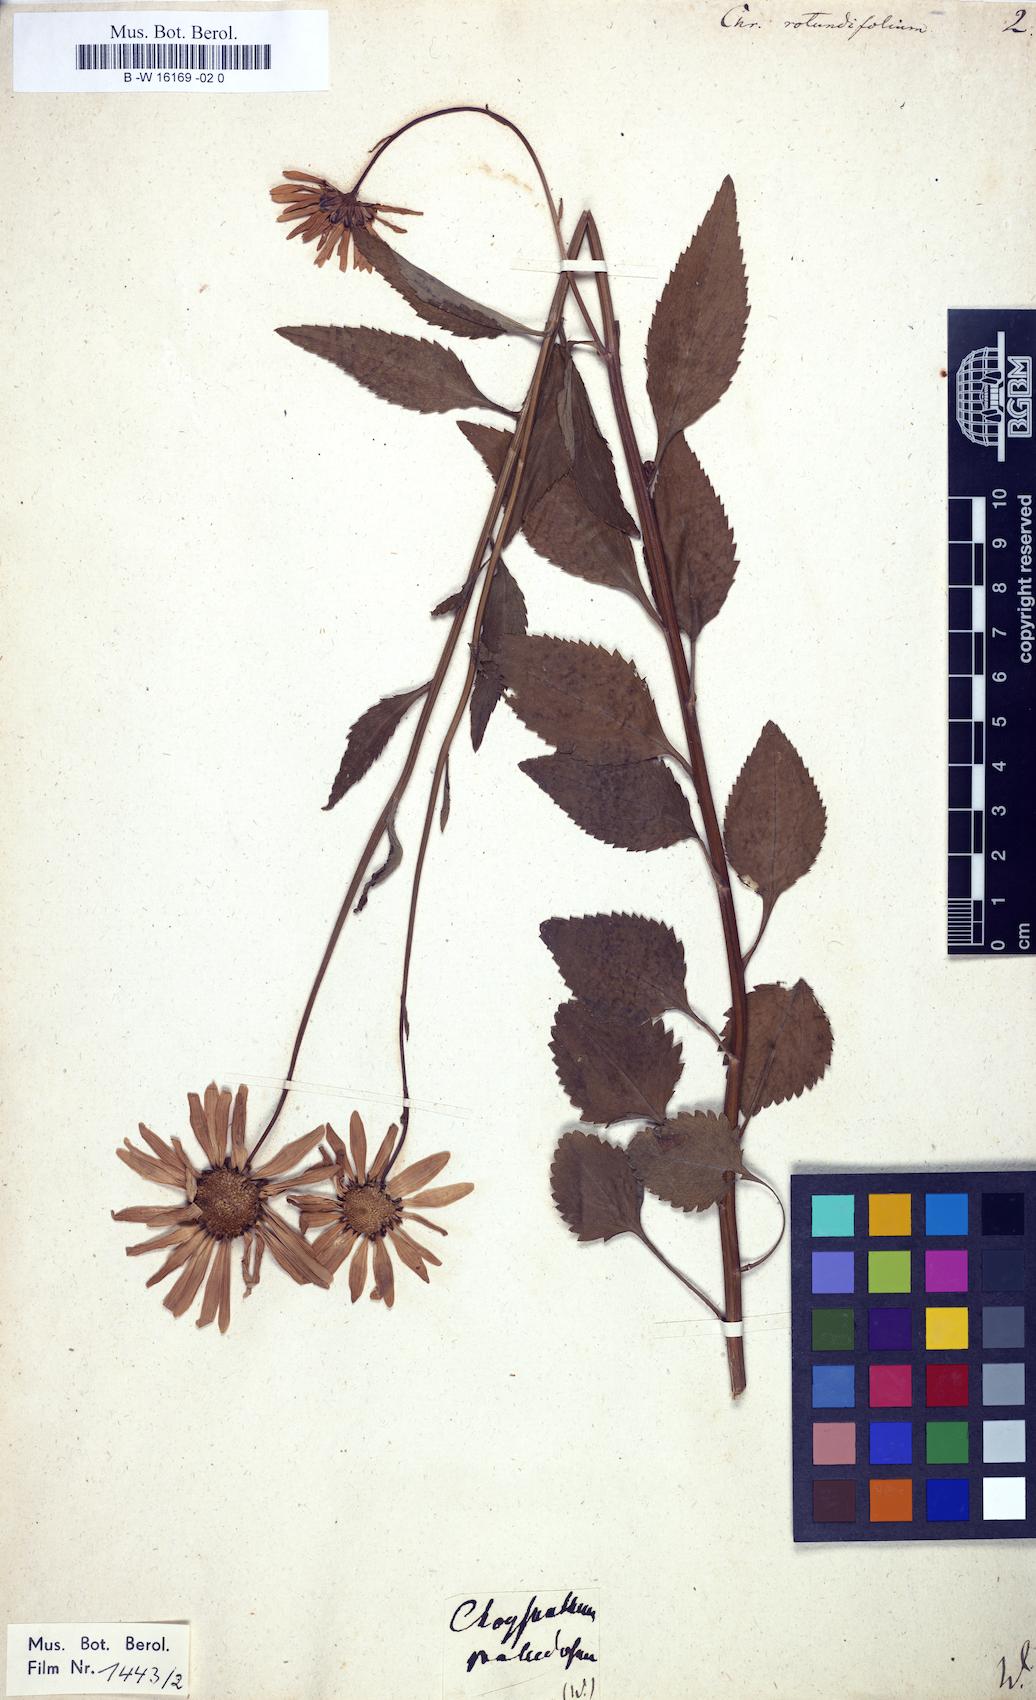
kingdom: Plantae
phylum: Tracheophyta
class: Magnoliopsida
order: Asterales
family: Asteraceae
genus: Leucanthemum
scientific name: Leucanthemum rotundifolium
